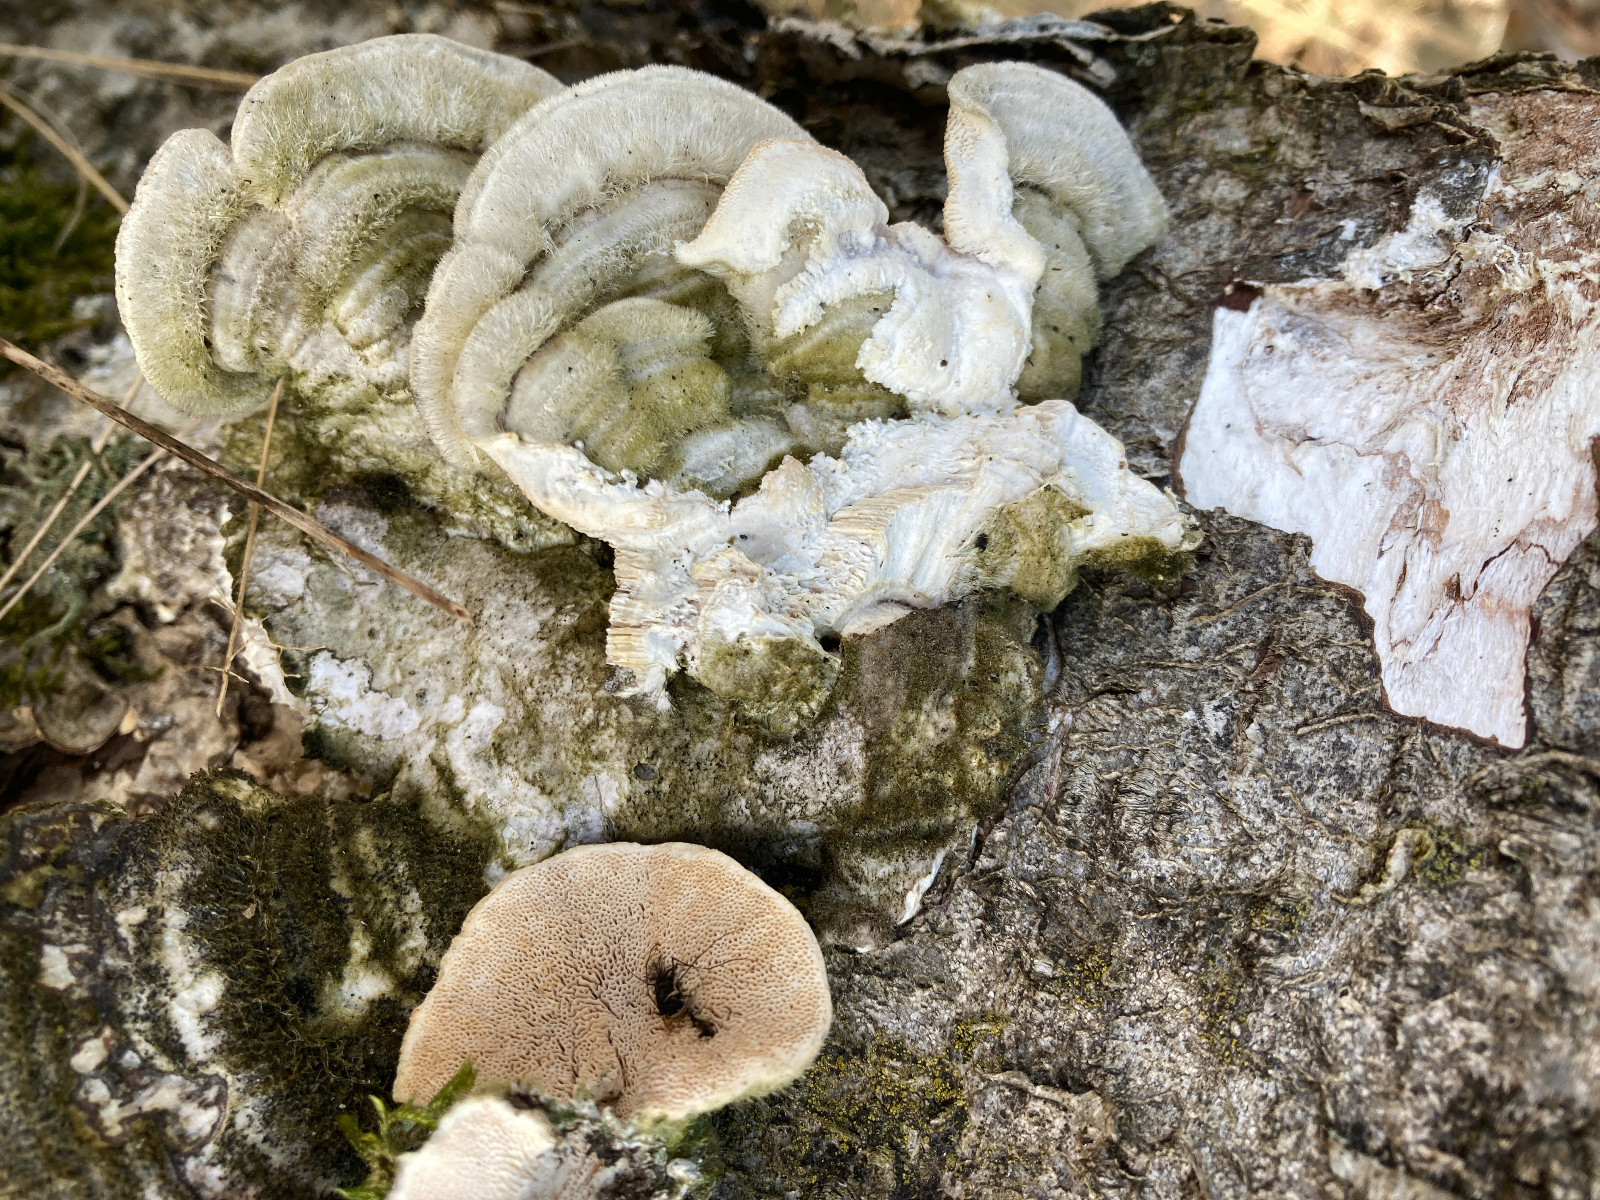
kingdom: Fungi
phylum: Basidiomycota
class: Agaricomycetes
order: Polyporales
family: Polyporaceae
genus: Trametes
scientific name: Trametes hirsuta
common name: håret læderporesvamp
